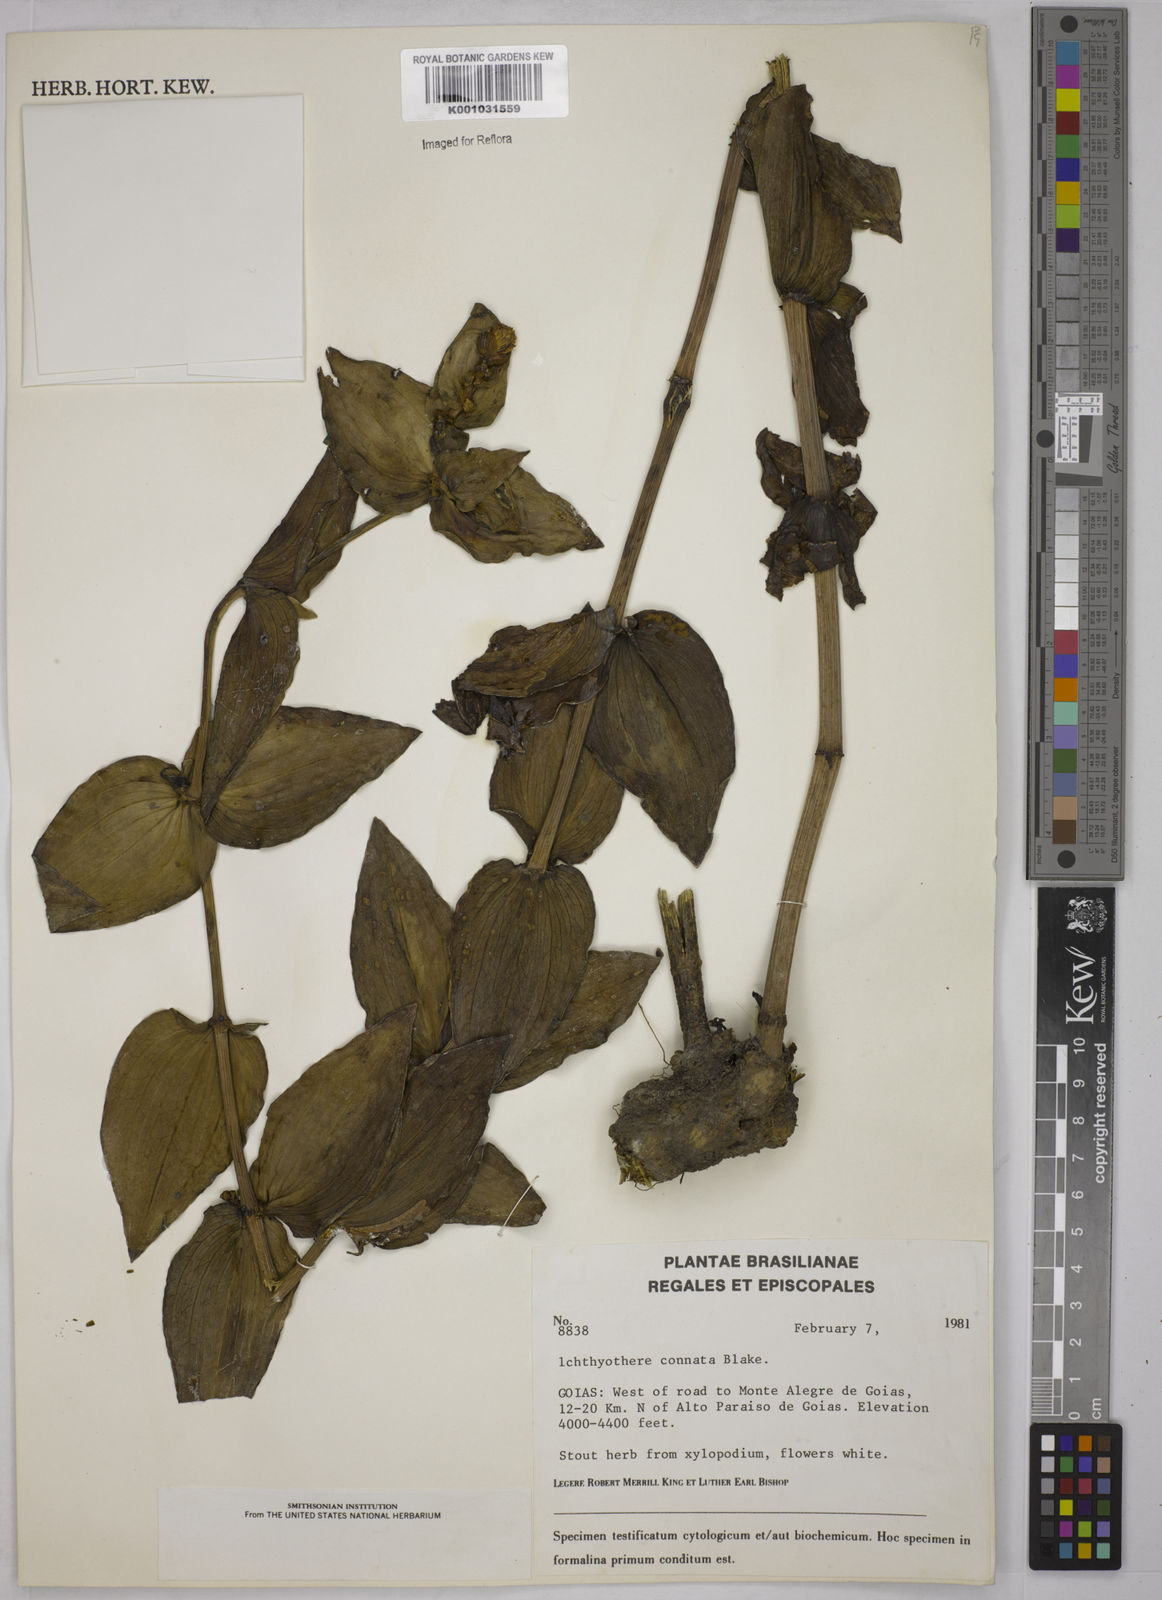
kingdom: Plantae
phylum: Tracheophyta
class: Magnoliopsida
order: Asterales
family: Asteraceae
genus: Ichthyothere
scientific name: Ichthyothere connata
